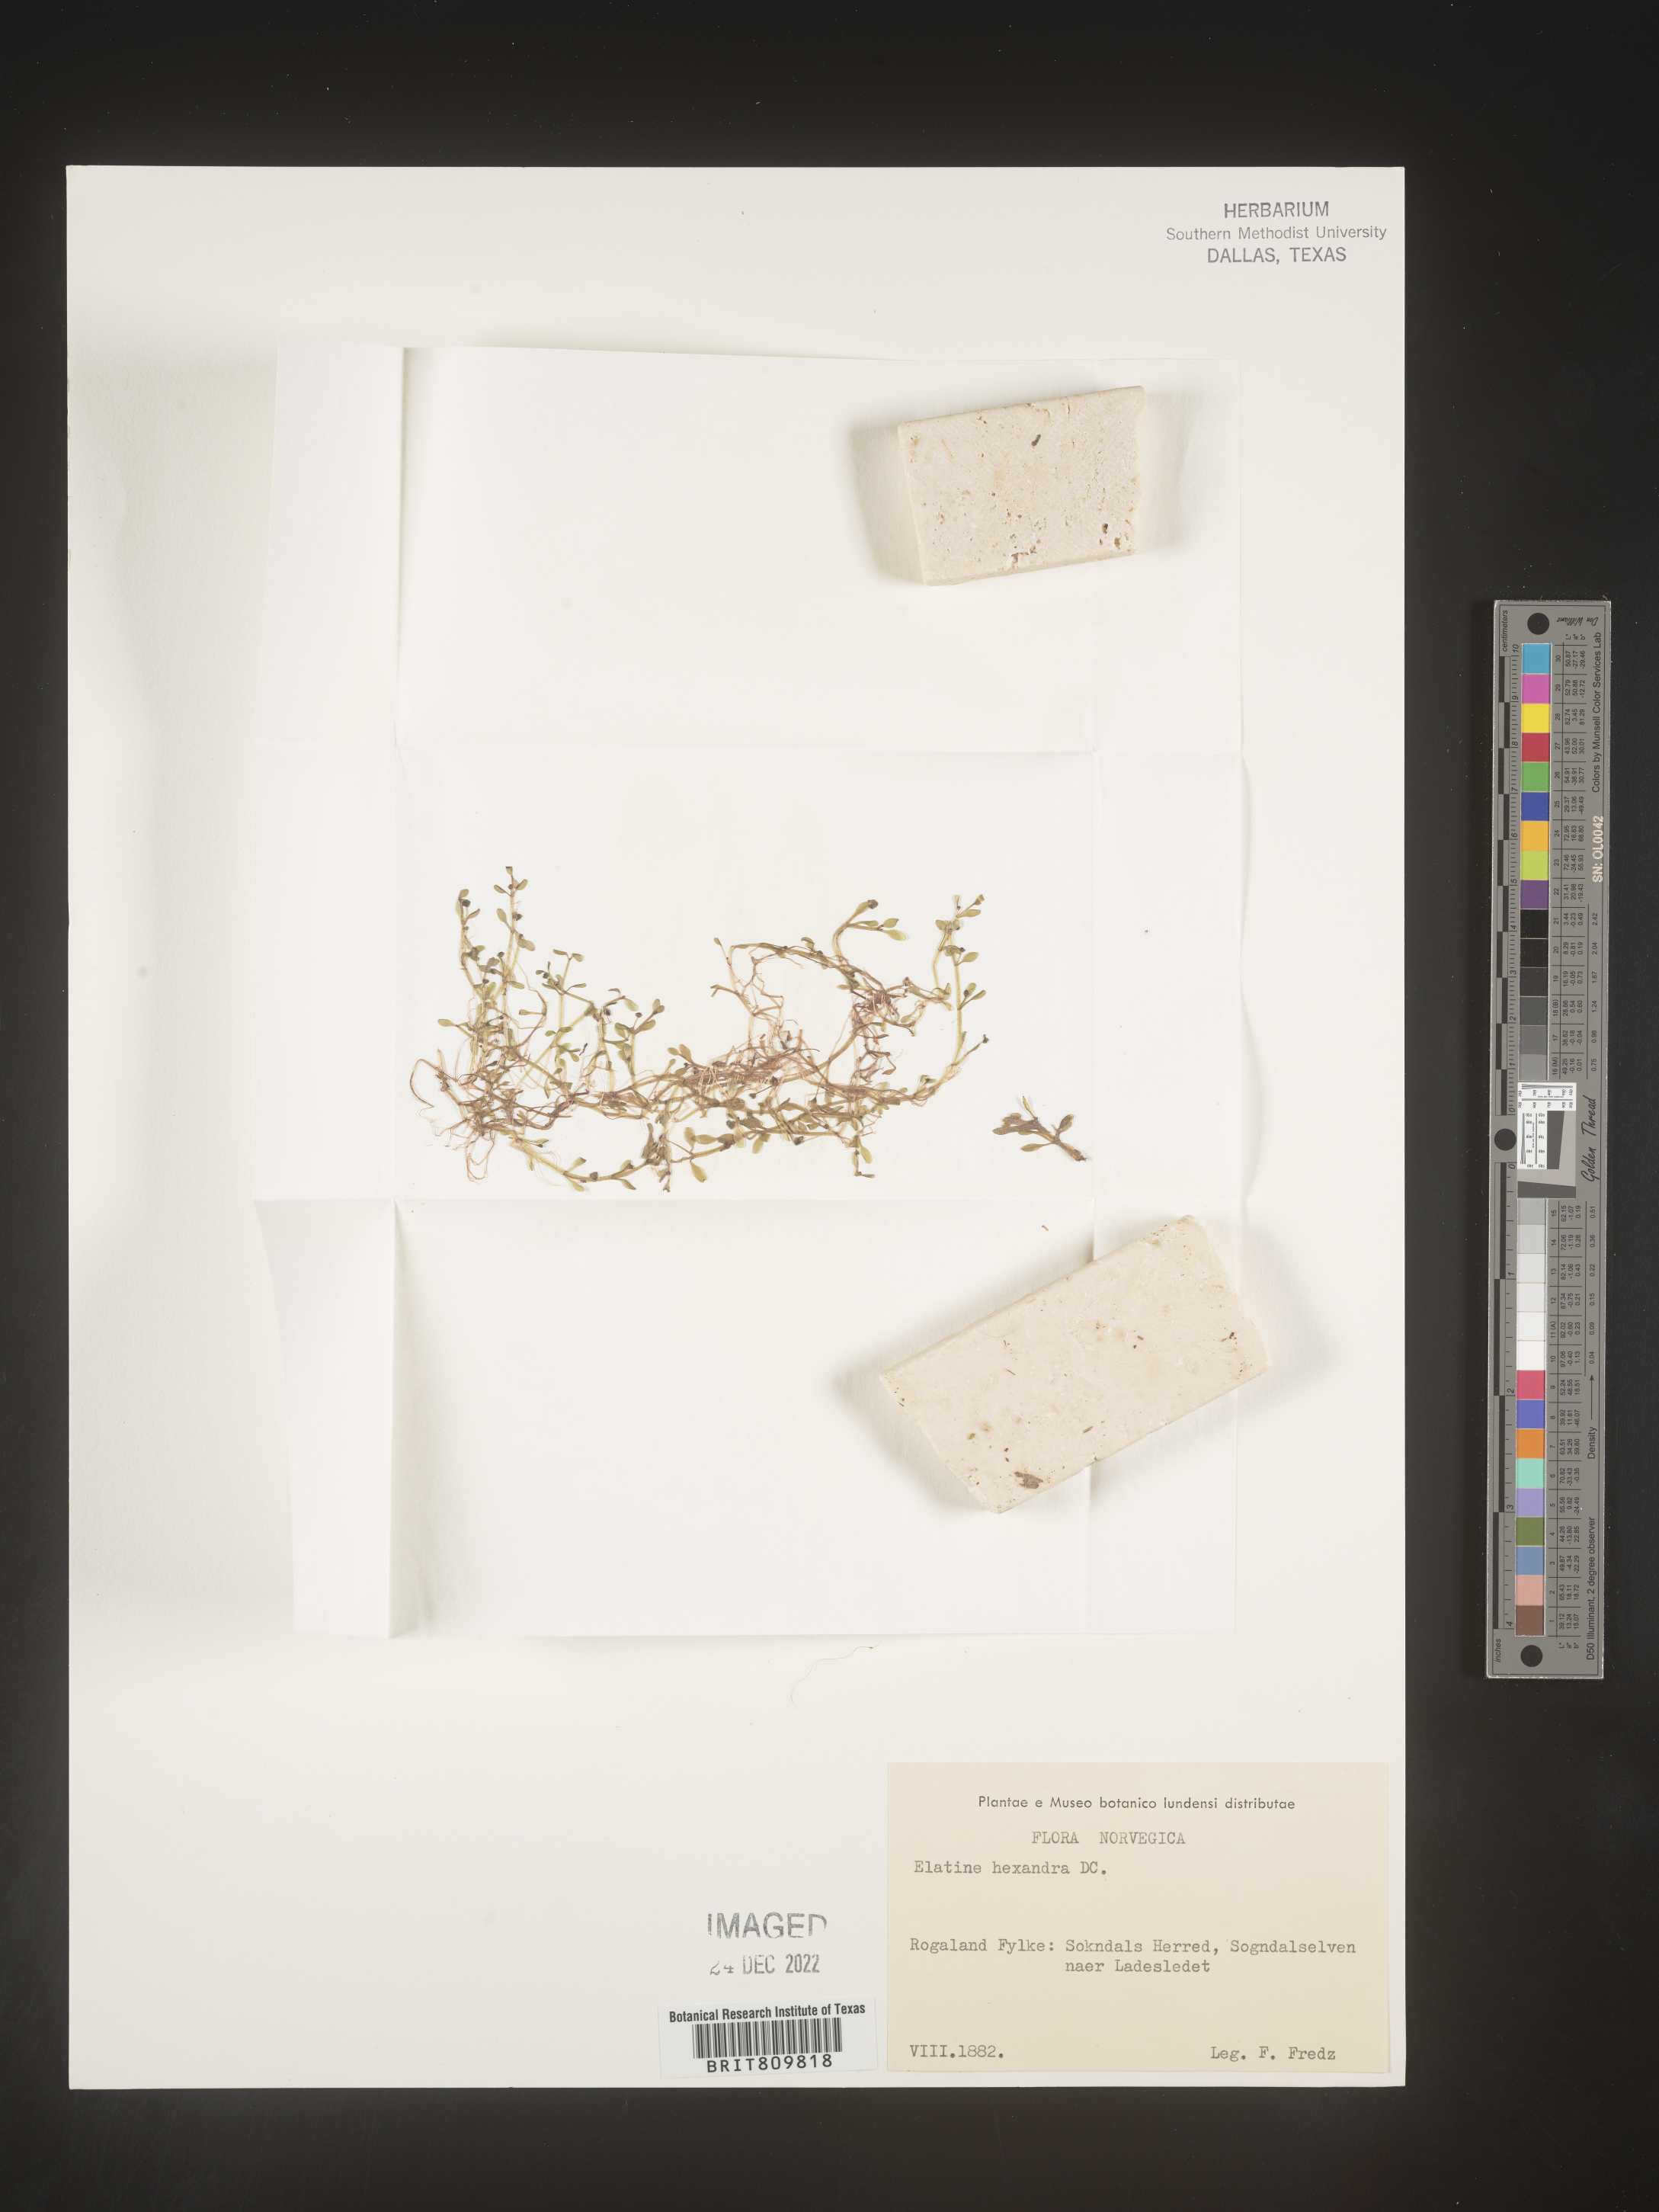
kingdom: Plantae
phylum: Tracheophyta
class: Magnoliopsida
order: Malpighiales
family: Elatinaceae
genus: Elatine
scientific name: Elatine
